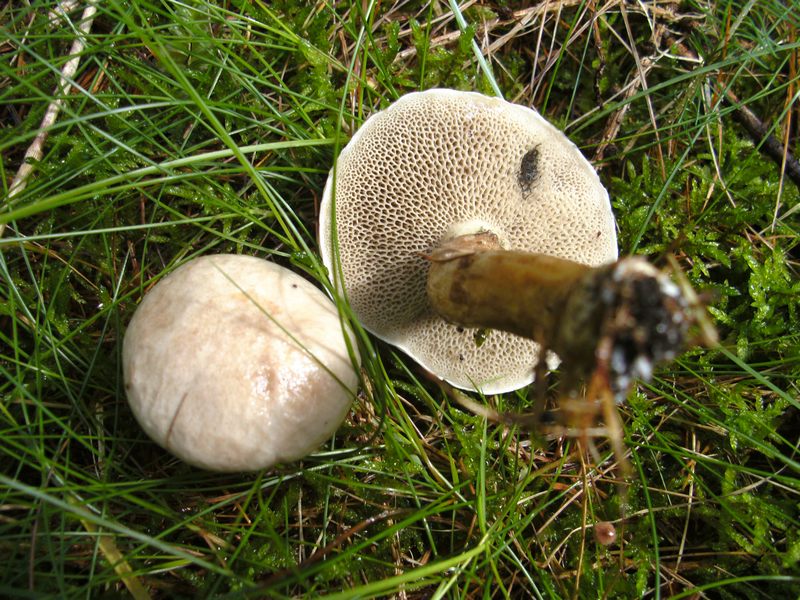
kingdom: Fungi
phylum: Basidiomycota
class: Agaricomycetes
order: Boletales
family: Suillaceae
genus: Suillus
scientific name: Suillus viscidus
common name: olivengrå slimrørhat
